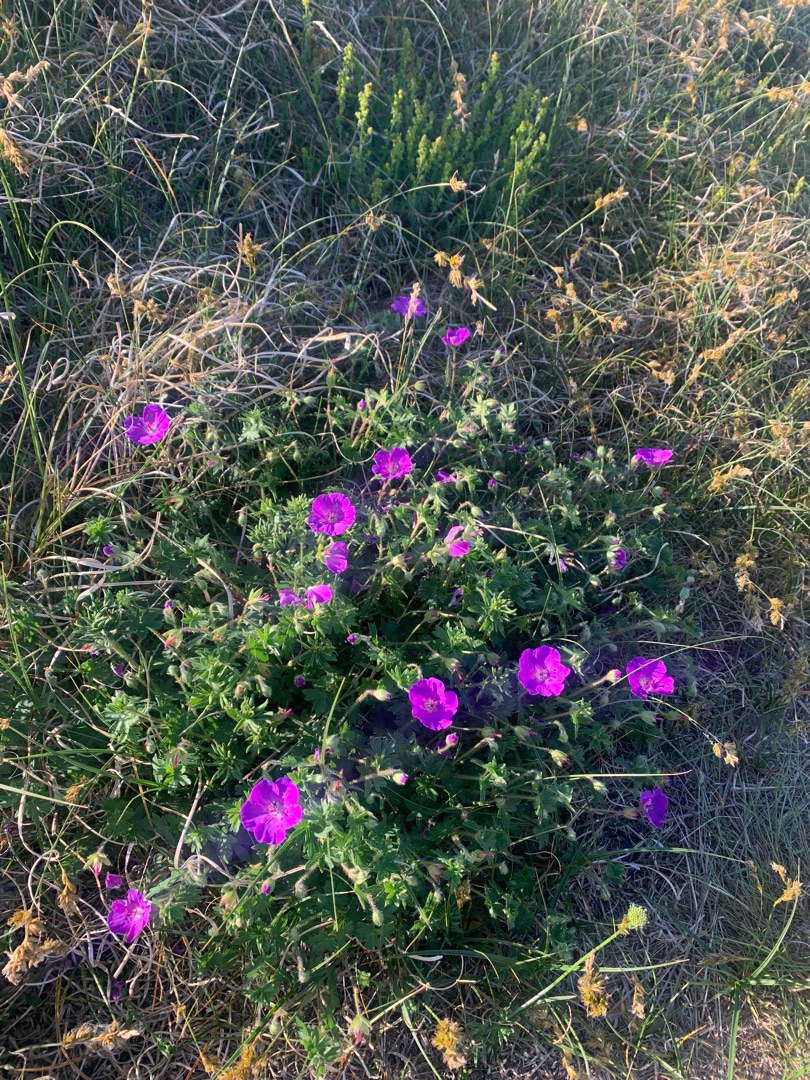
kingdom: Plantae
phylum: Tracheophyta
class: Magnoliopsida
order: Geraniales
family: Geraniaceae
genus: Geranium
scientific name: Geranium sanguineum
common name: Blodrød storkenæb
